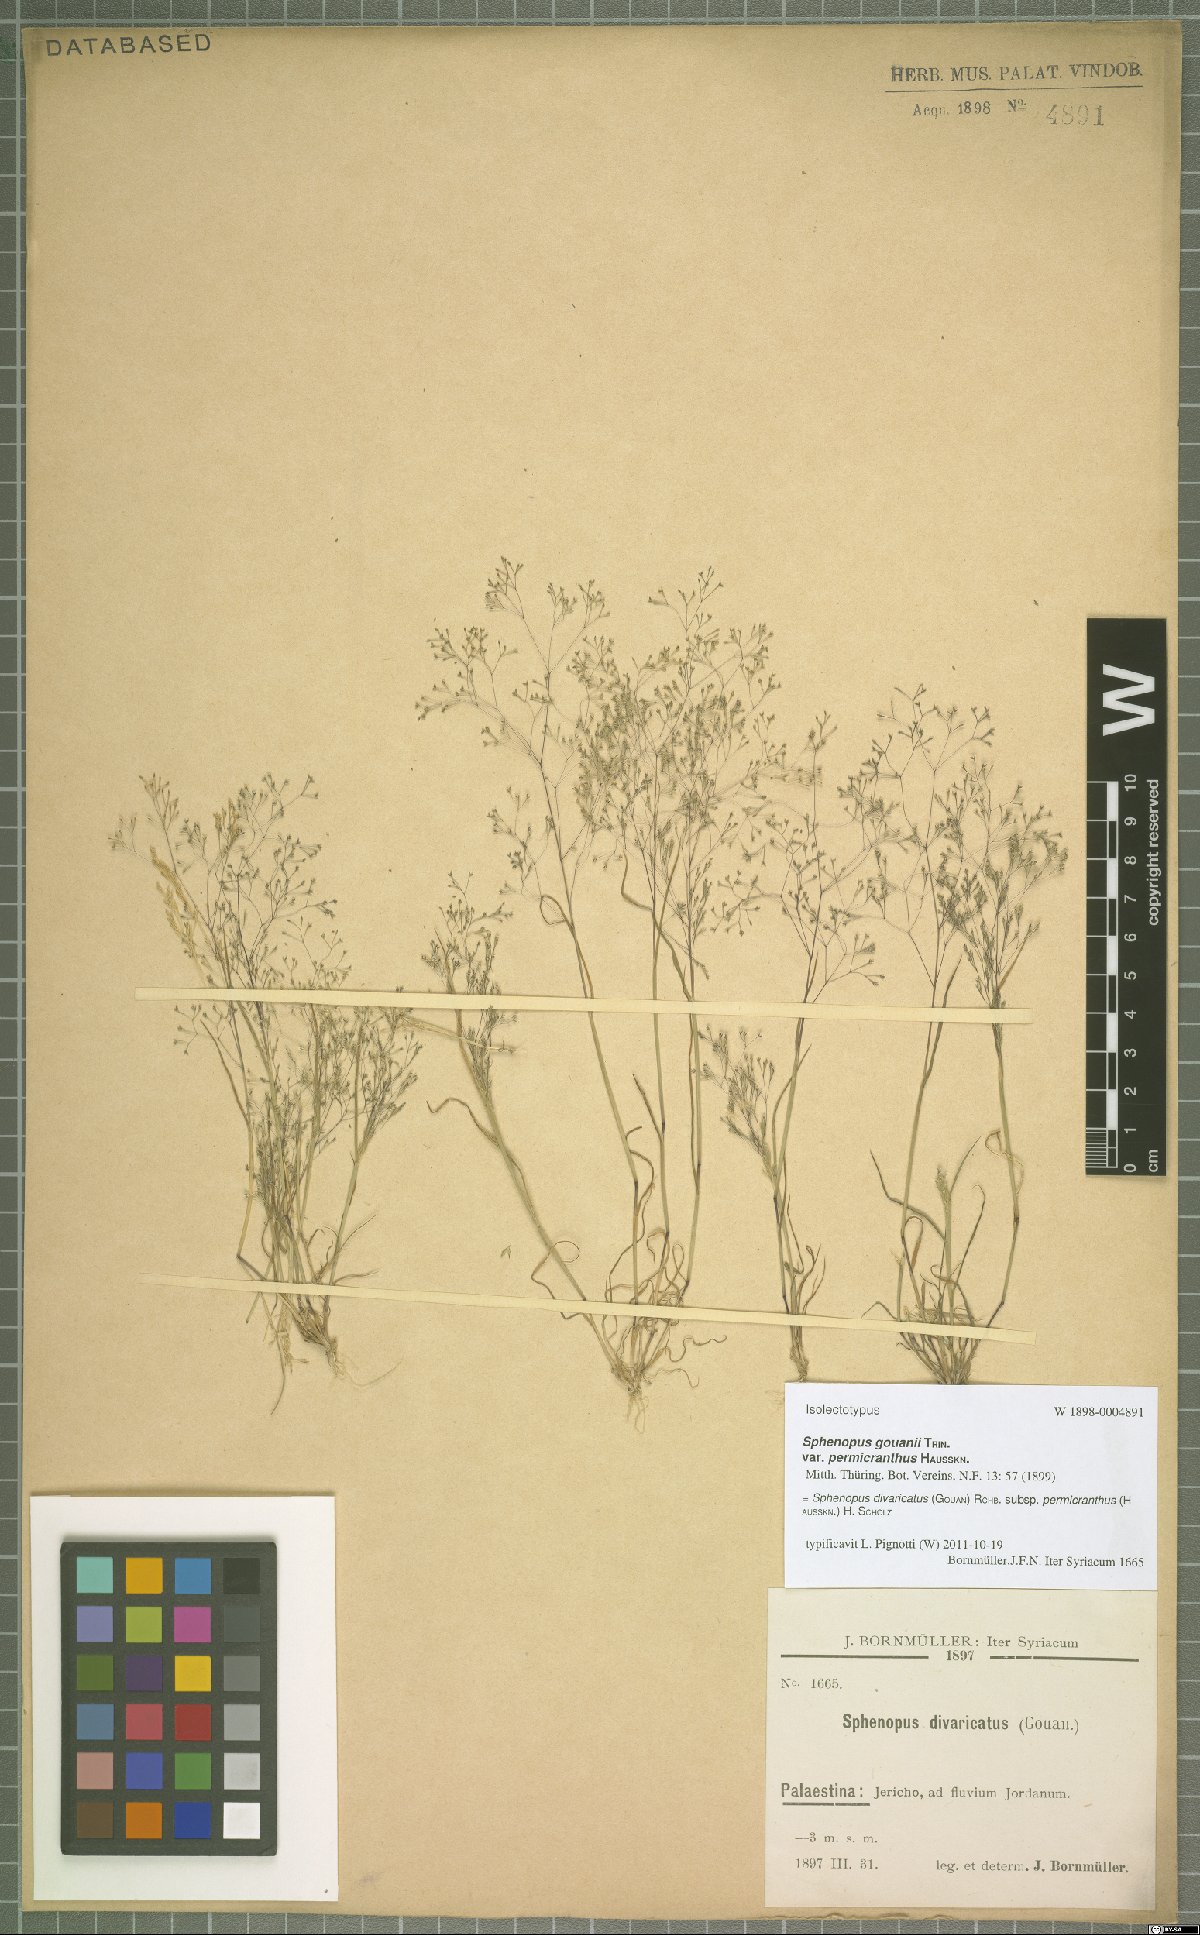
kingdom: Plantae
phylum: Tracheophyta
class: Liliopsida
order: Poales
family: Poaceae
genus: Sphenopus
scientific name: Sphenopus divaricatus
